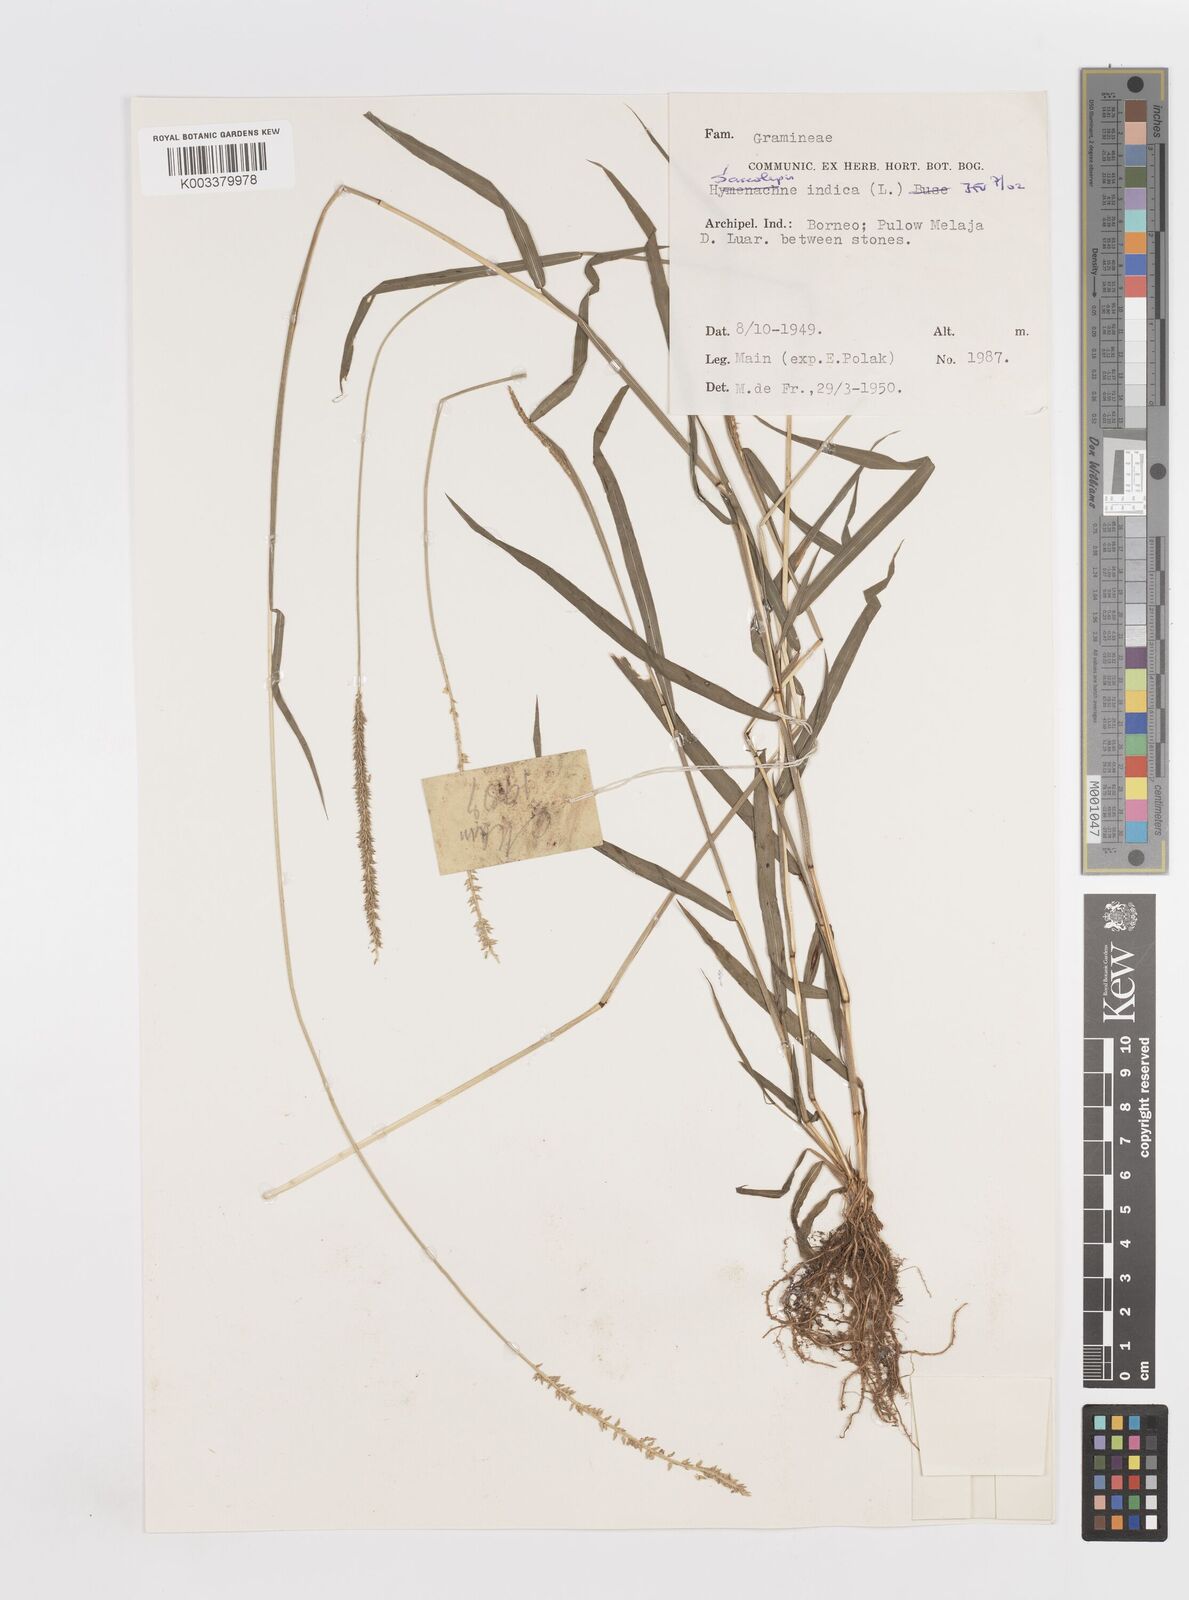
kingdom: Plantae
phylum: Tracheophyta
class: Liliopsida
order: Poales
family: Poaceae
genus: Sacciolepis
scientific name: Sacciolepis indica
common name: Glenwoodgrass
